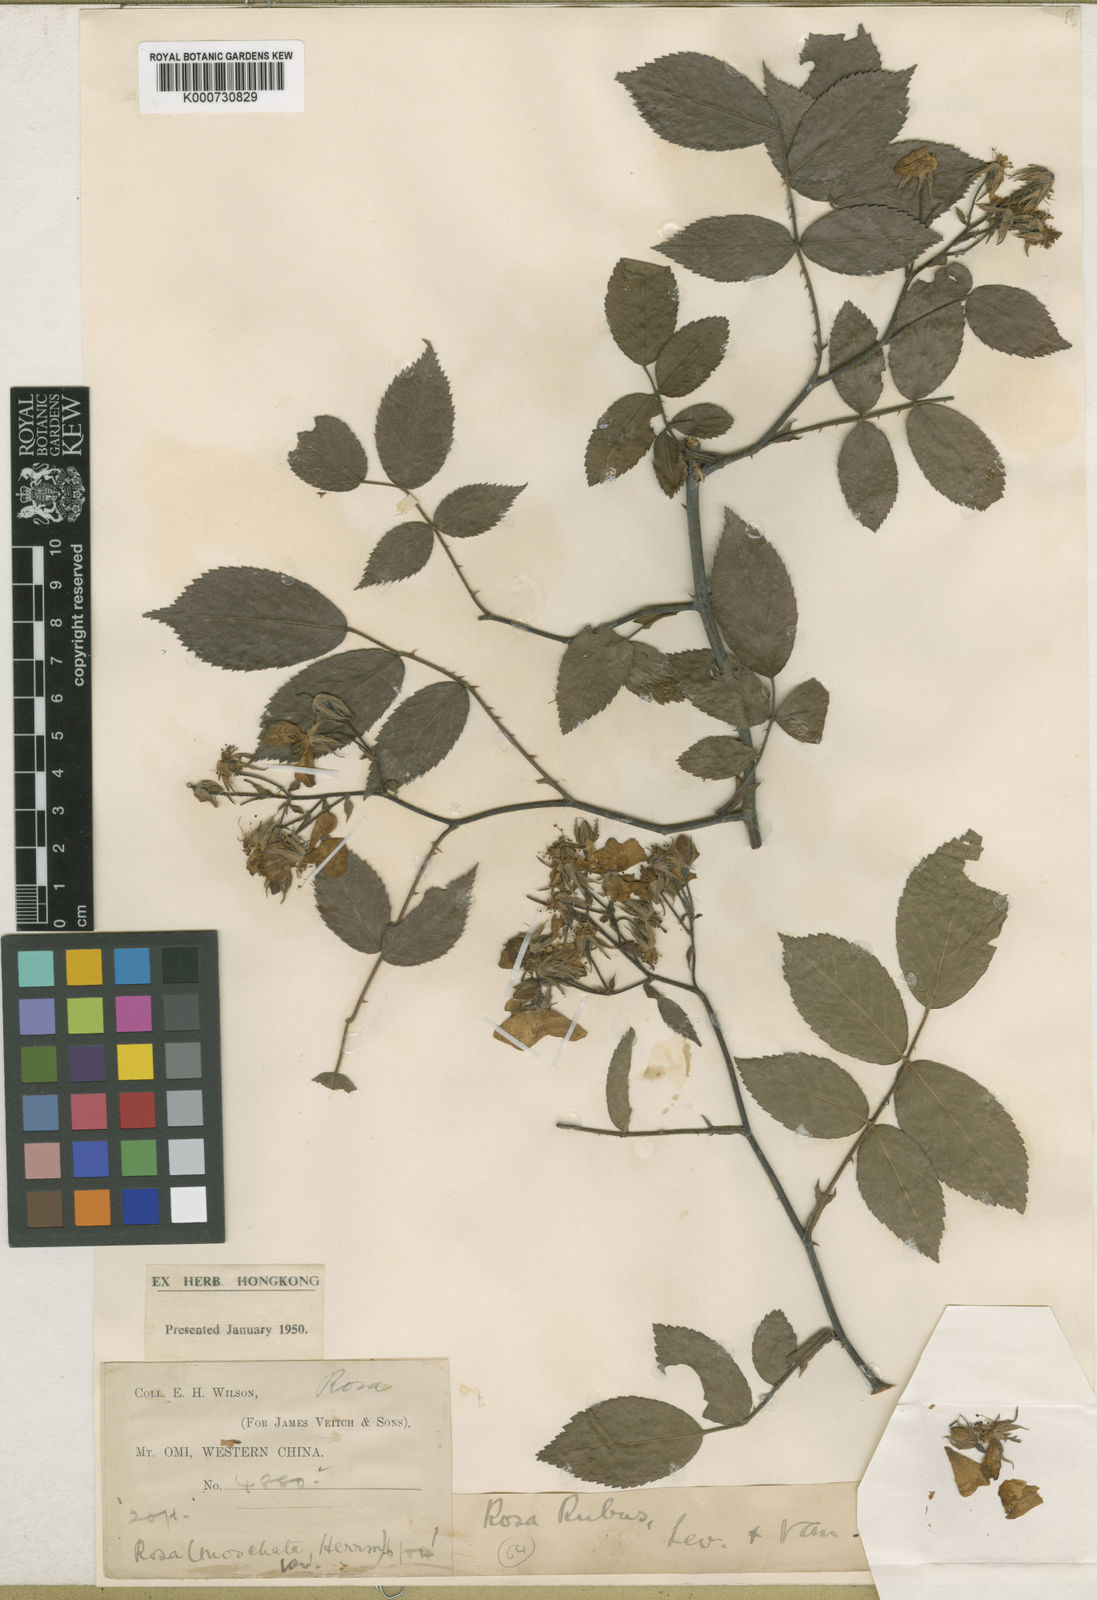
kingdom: Plantae
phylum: Tracheophyta
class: Magnoliopsida
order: Rosales
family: Rosaceae
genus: Rosa
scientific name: Rosa rubus
